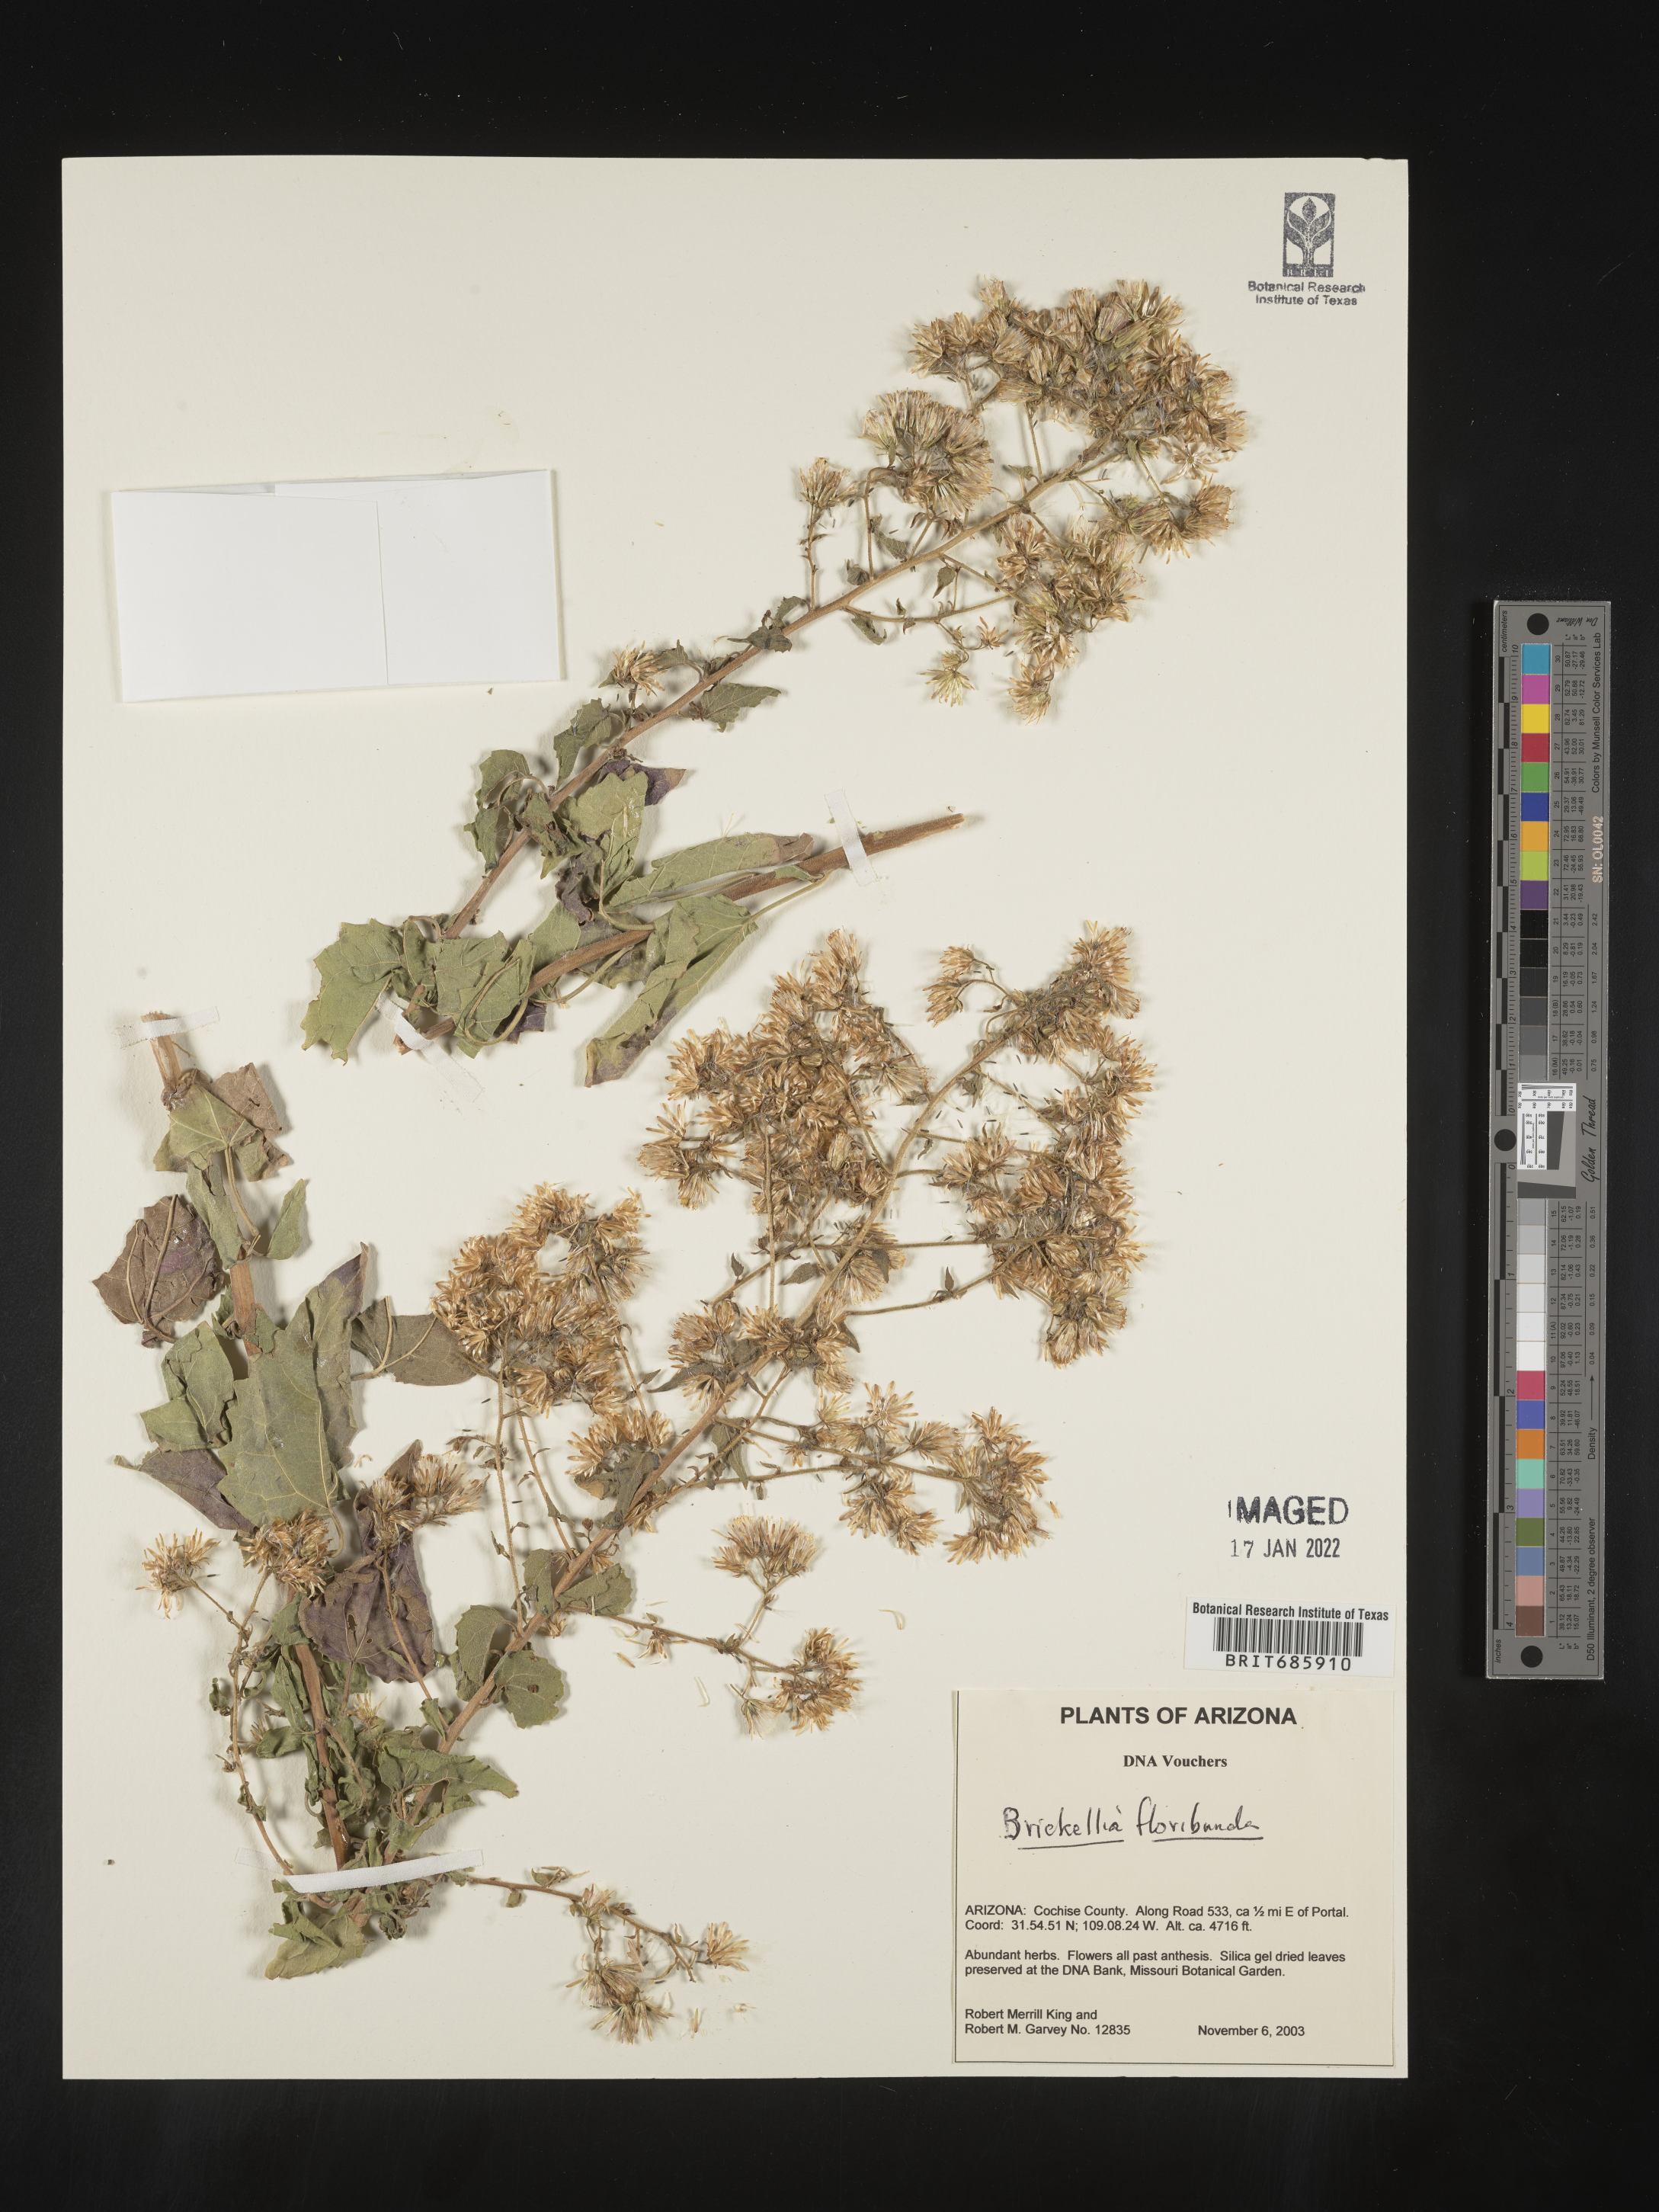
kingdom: Plantae
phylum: Tracheophyta
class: Magnoliopsida
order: Asterales
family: Asteraceae
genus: Brickellia
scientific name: Brickellia floribunda
